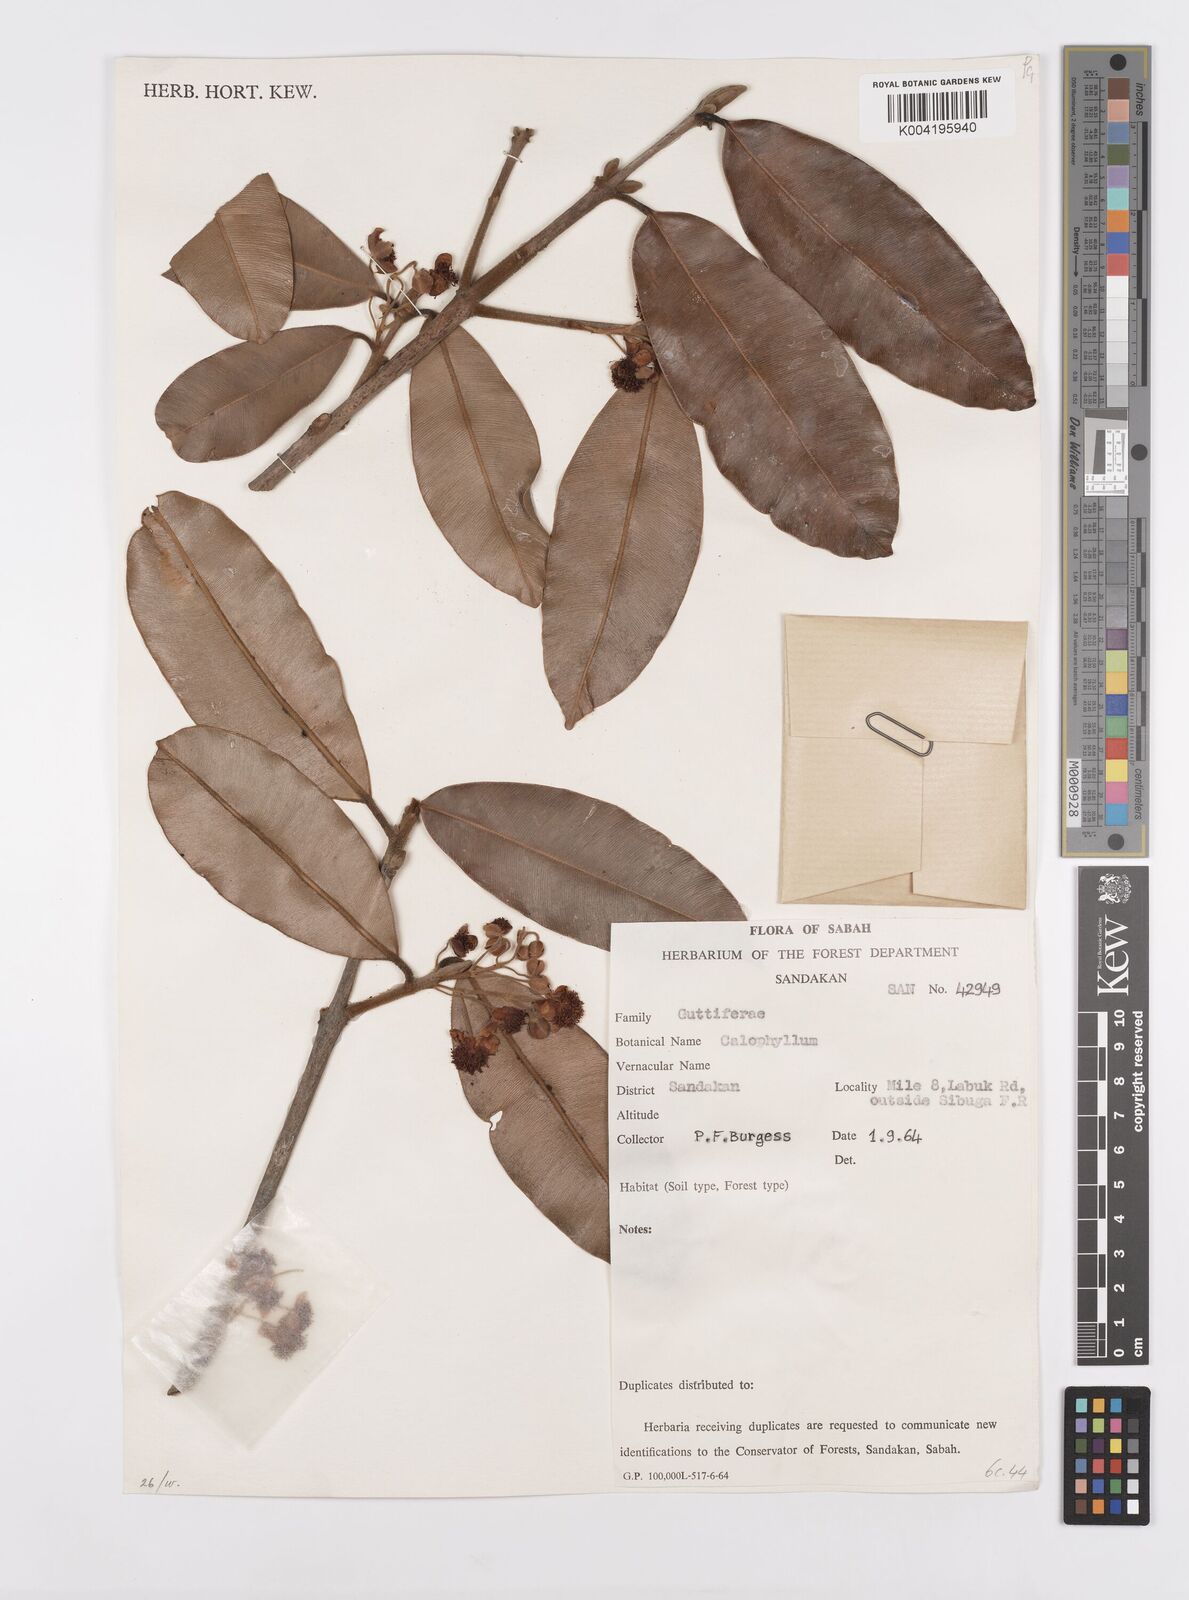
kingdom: Plantae
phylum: Tracheophyta
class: Magnoliopsida
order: Malpighiales
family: Calophyllaceae
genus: Calophyllum
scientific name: Calophyllum woodii
